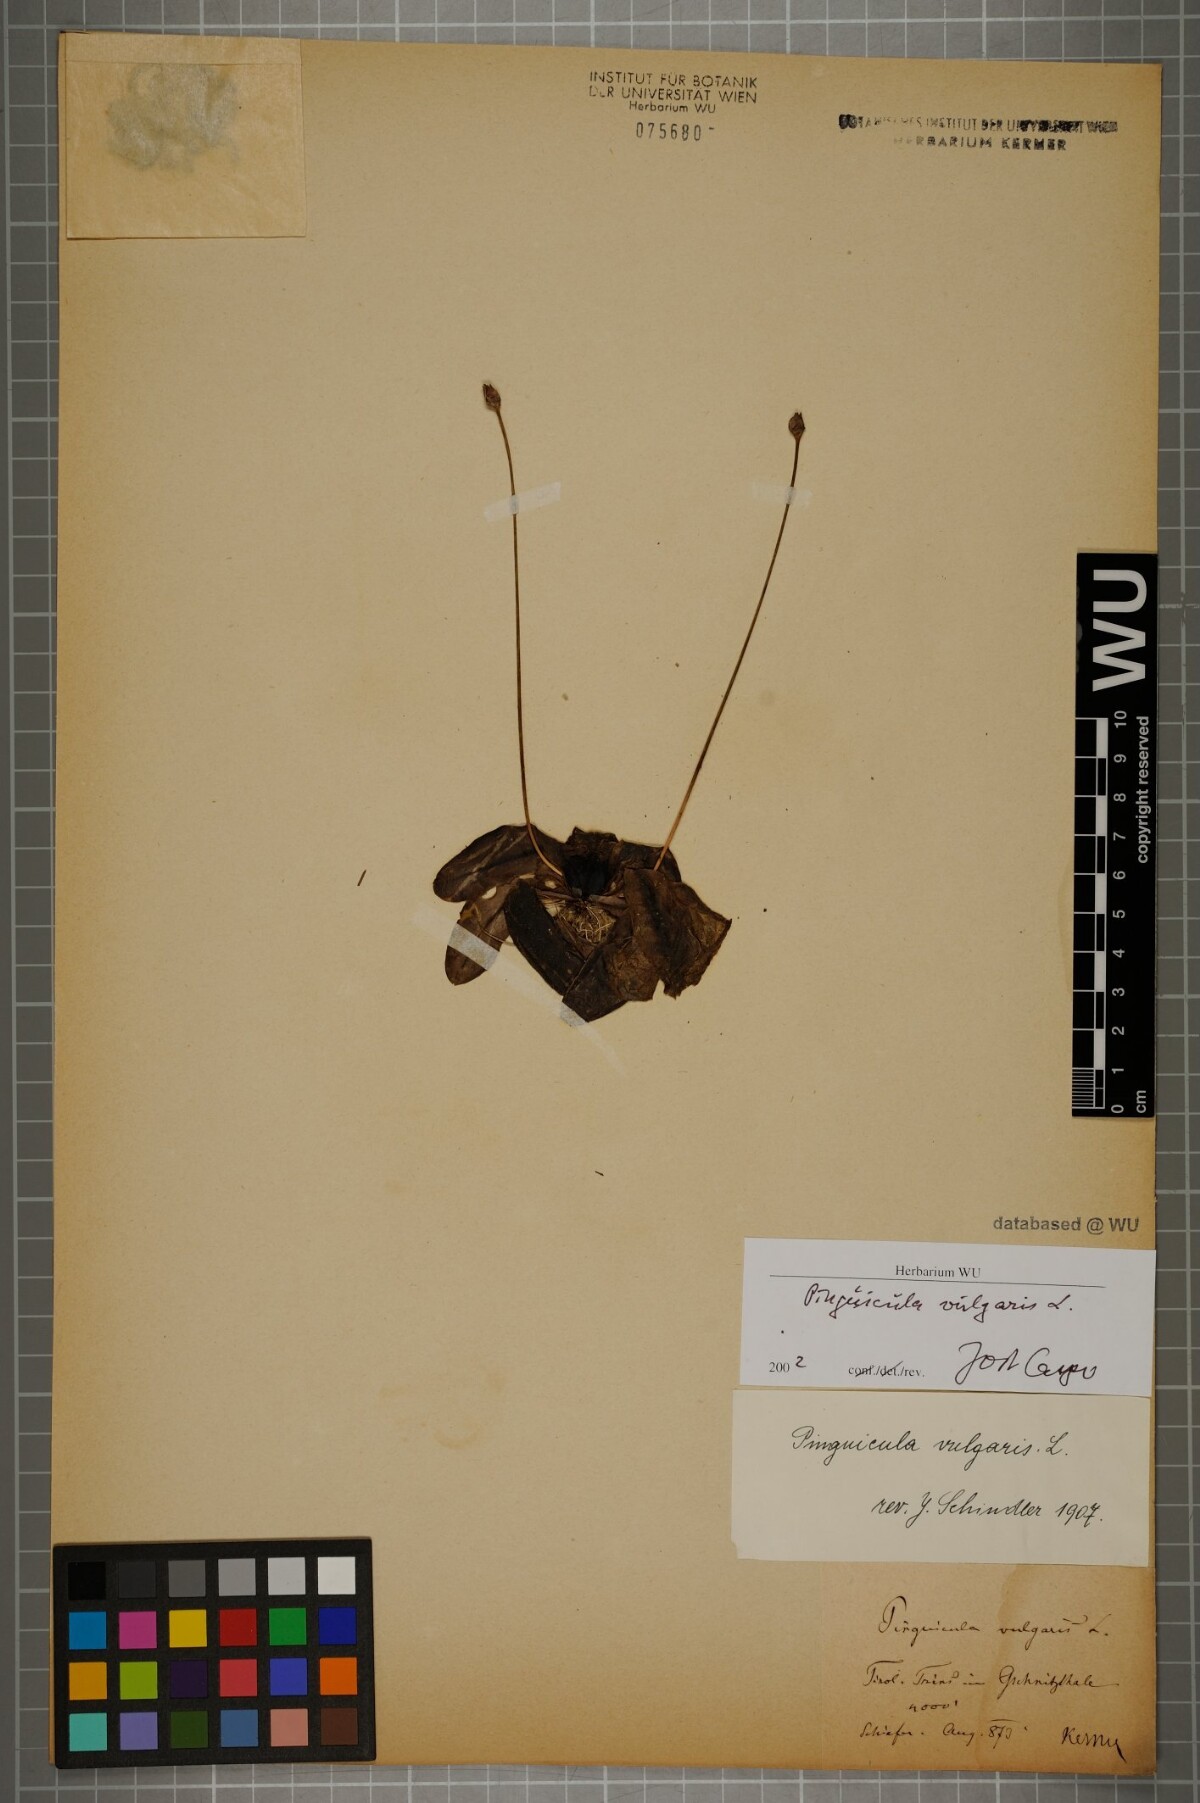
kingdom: Plantae
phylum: Tracheophyta
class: Magnoliopsida
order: Lamiales
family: Lentibulariaceae
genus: Pinguicula
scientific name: Pinguicula vulgaris
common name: Common butterwort
